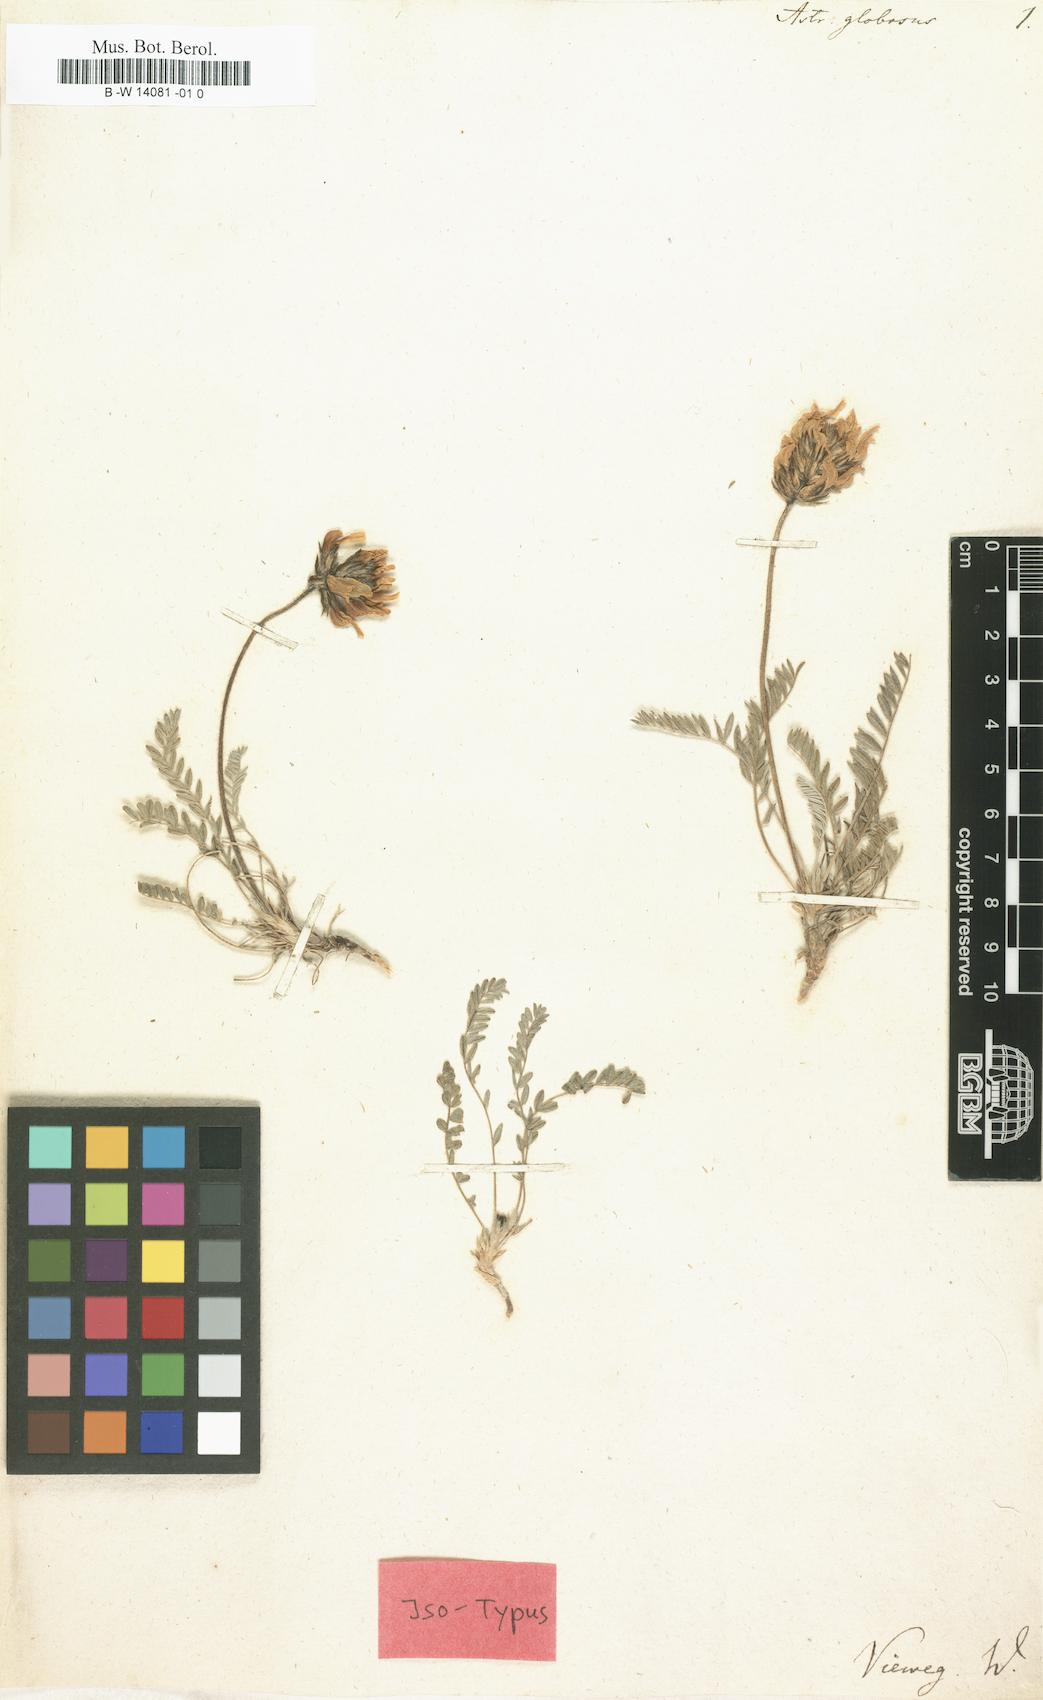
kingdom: Plantae
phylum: Tracheophyta
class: Magnoliopsida
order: Fabales
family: Fabaceae
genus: Astragalus
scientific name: Astragalus globosus
